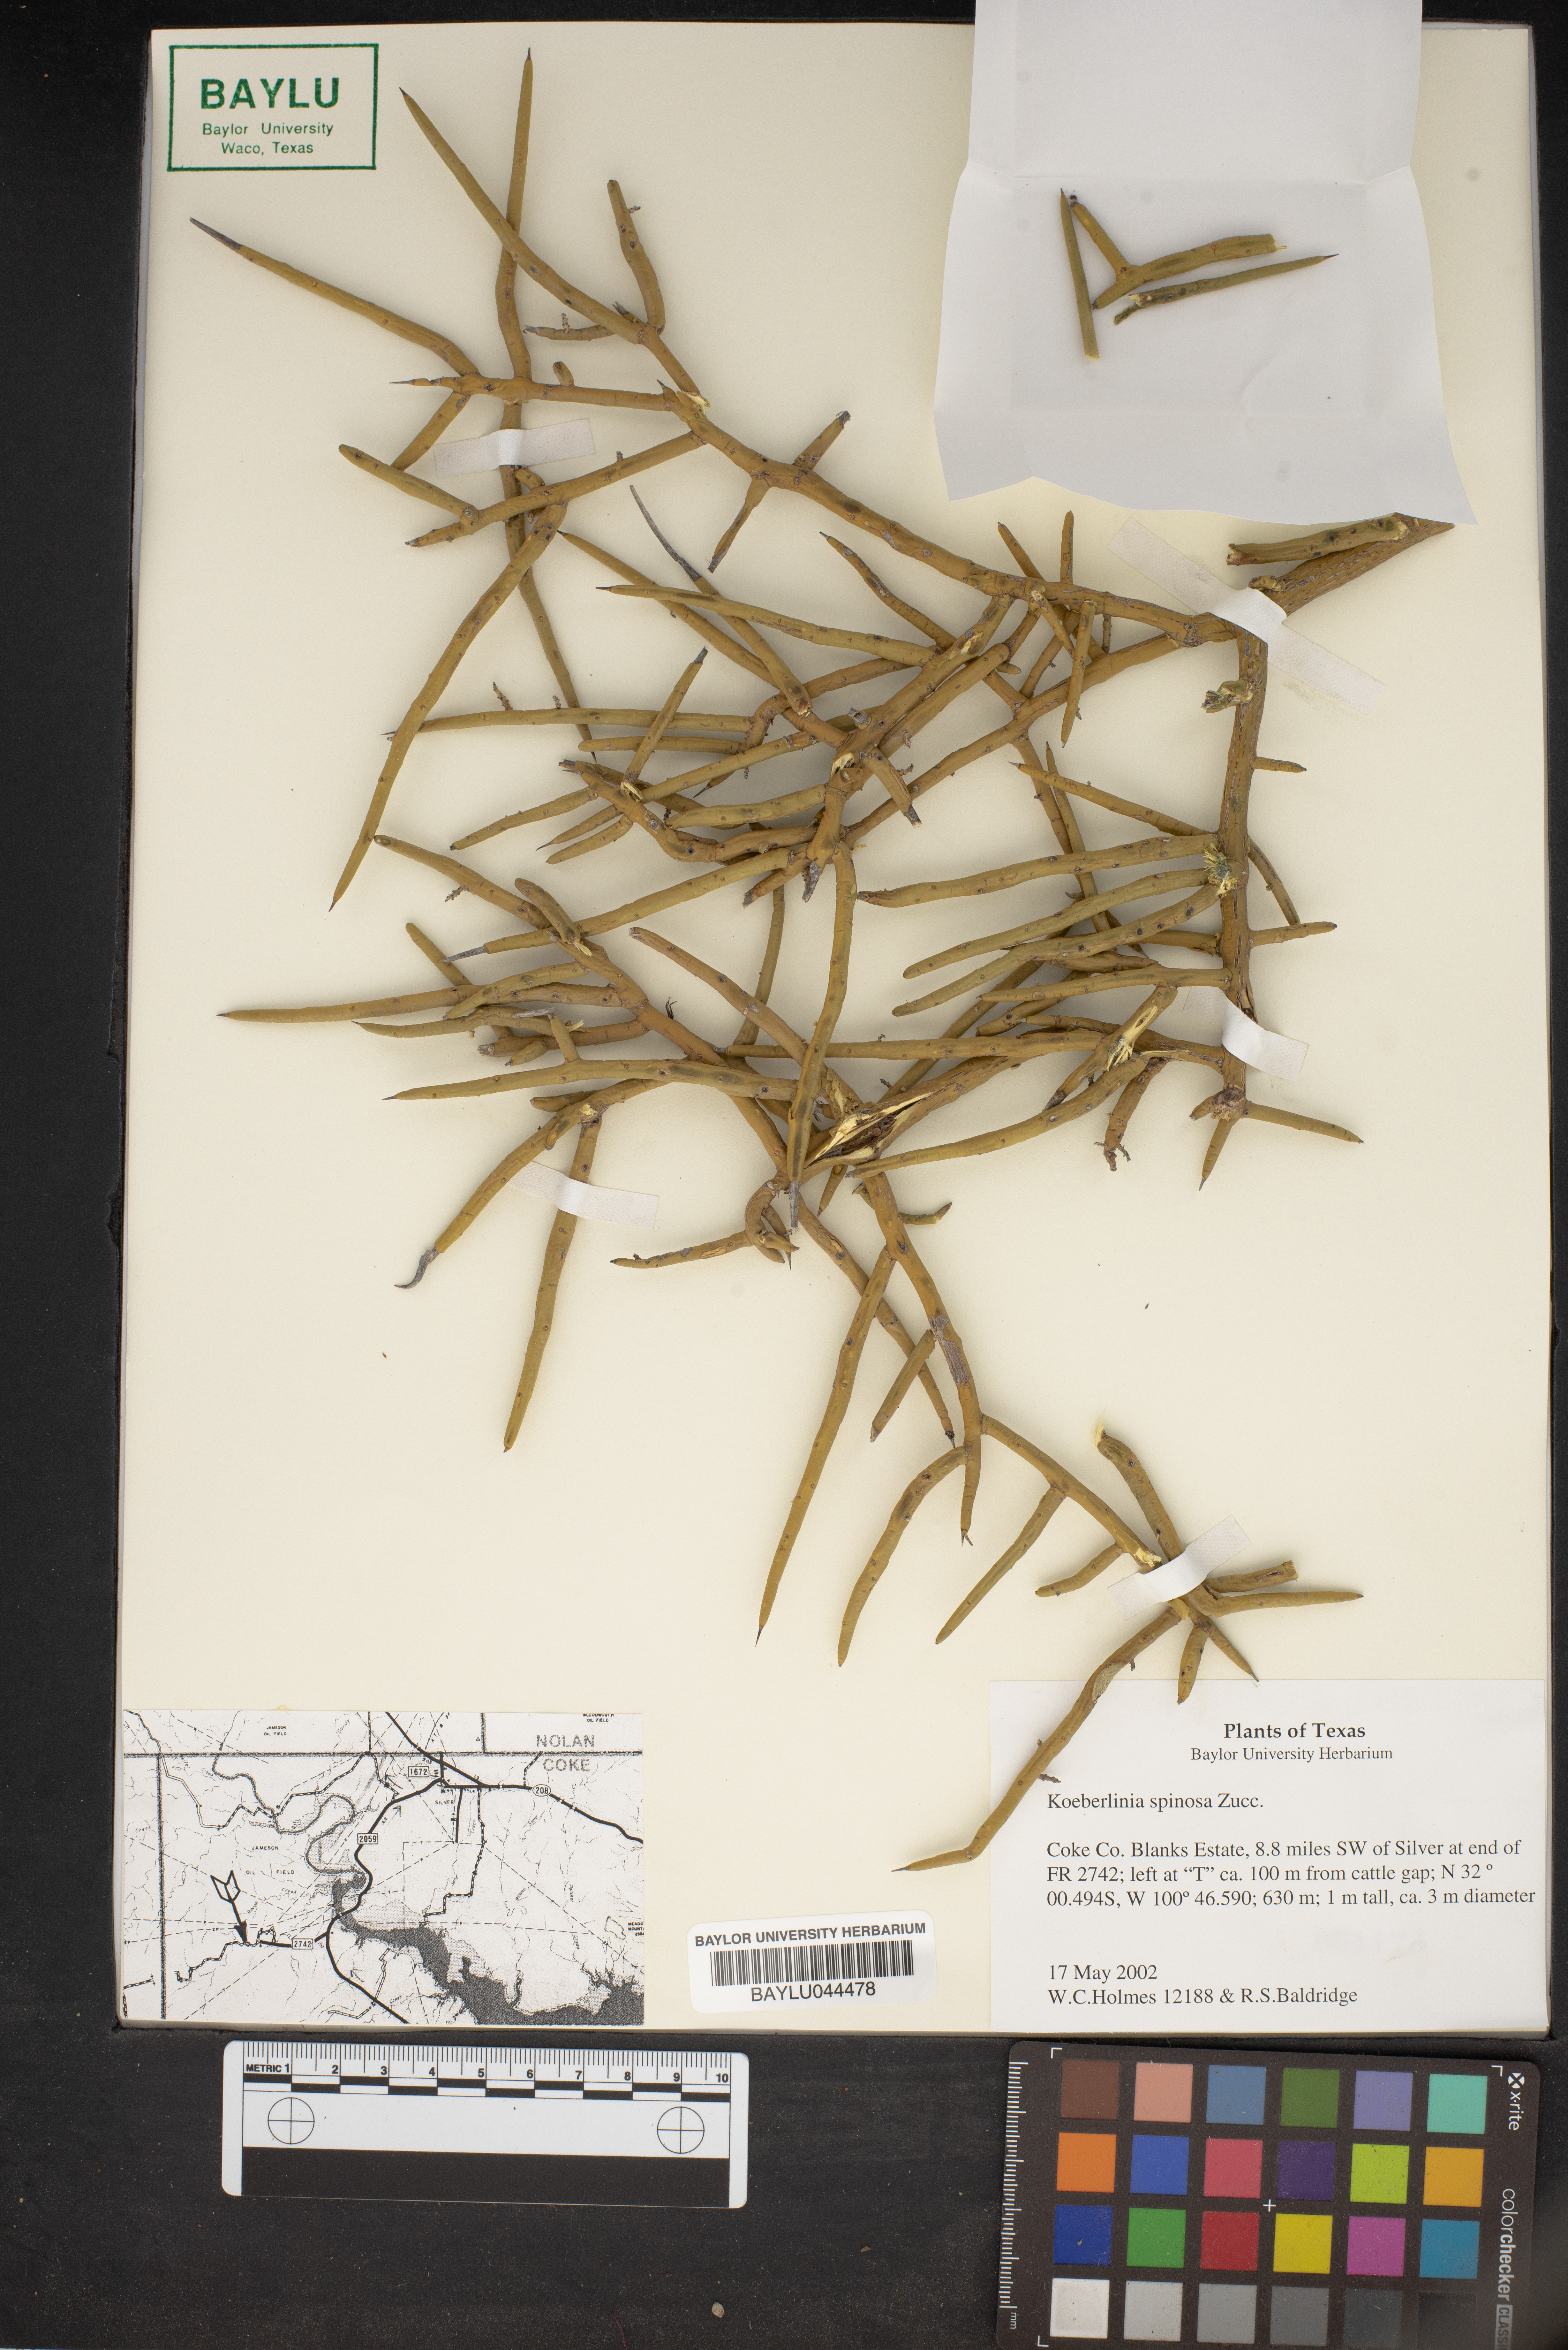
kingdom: Plantae
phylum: Tracheophyta
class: Magnoliopsida
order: Brassicales
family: Koeberliniaceae
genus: Koeberlinia
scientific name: Koeberlinia spinosa
